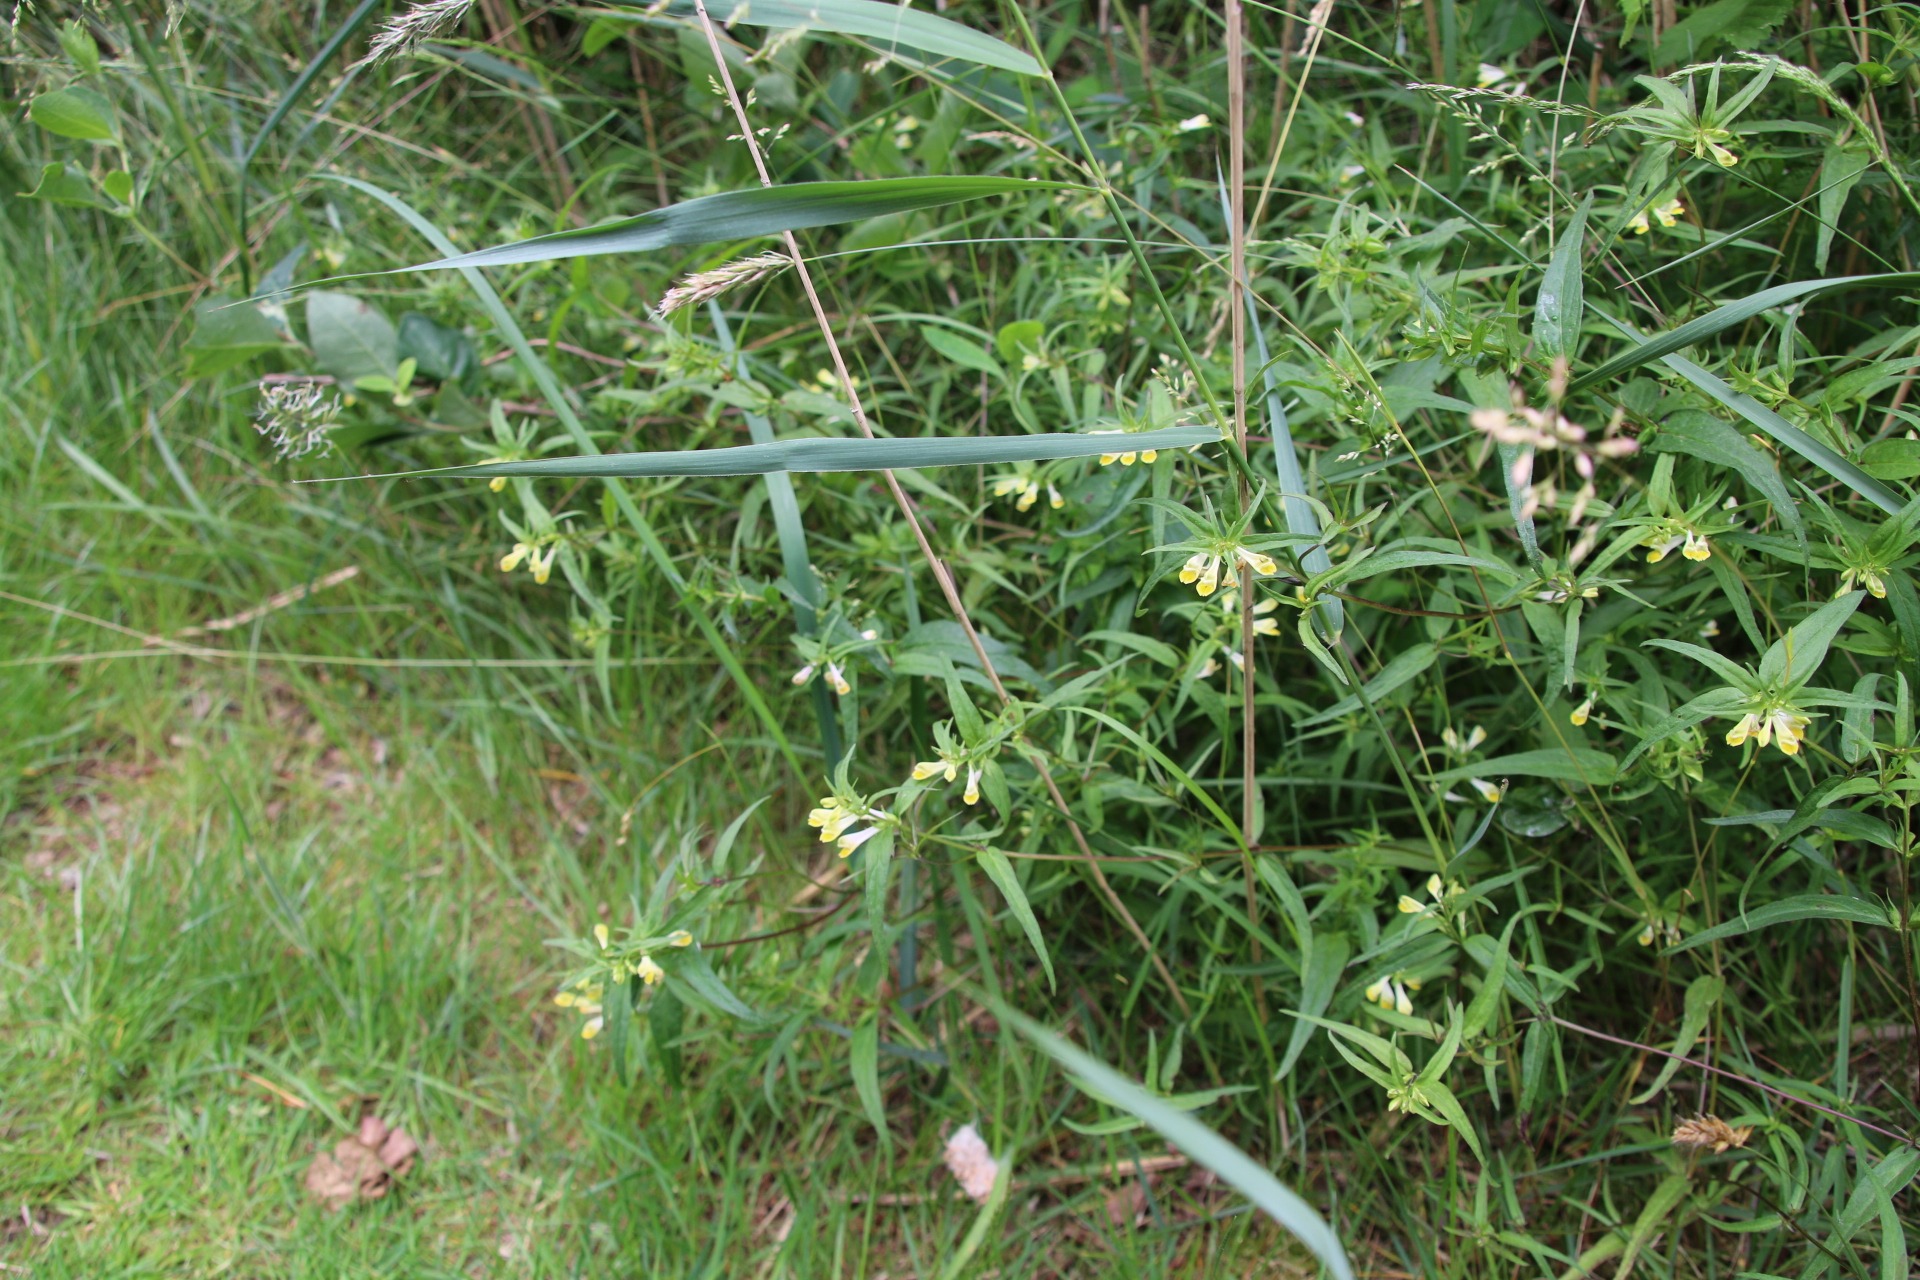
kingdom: Plantae
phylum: Tracheophyta
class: Magnoliopsida
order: Lamiales
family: Orobanchaceae
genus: Melampyrum
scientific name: Melampyrum pratense
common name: Almindelig kohvede
